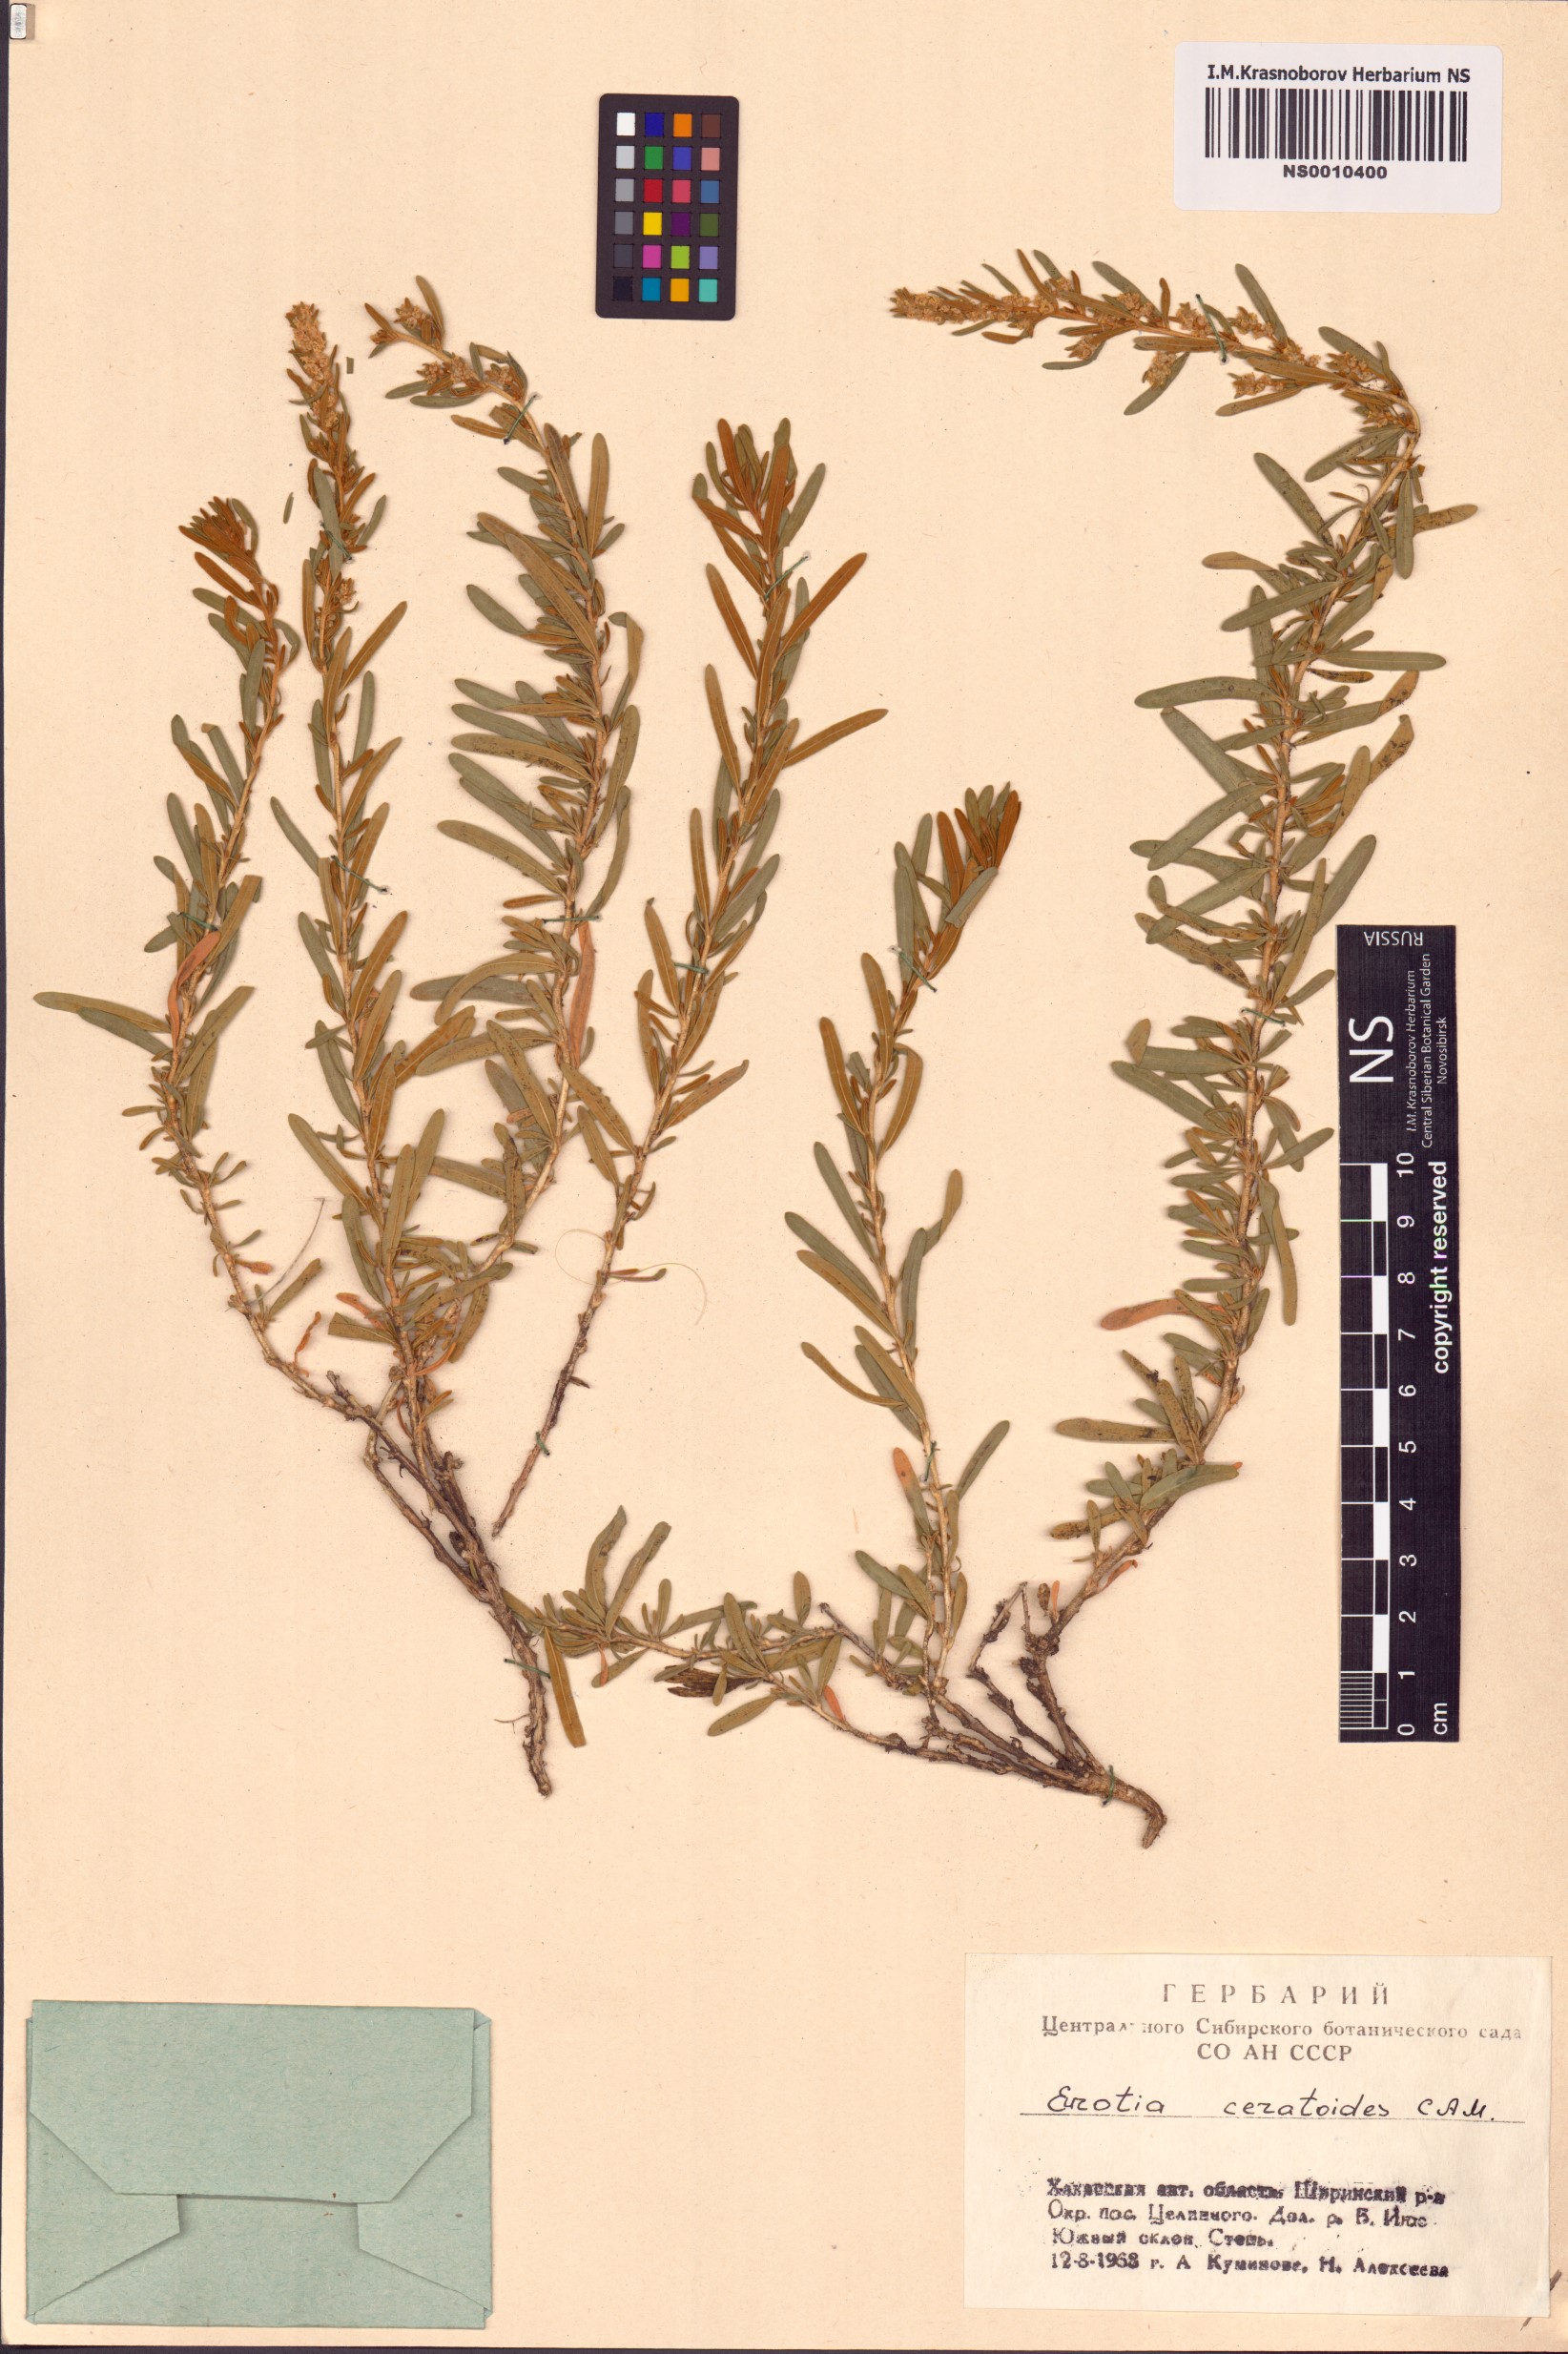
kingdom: Plantae
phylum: Tracheophyta
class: Magnoliopsida
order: Caryophyllales
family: Amaranthaceae
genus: Krascheninnikovia
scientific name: Krascheninnikovia ceratoides
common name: Pamirian winterfat
